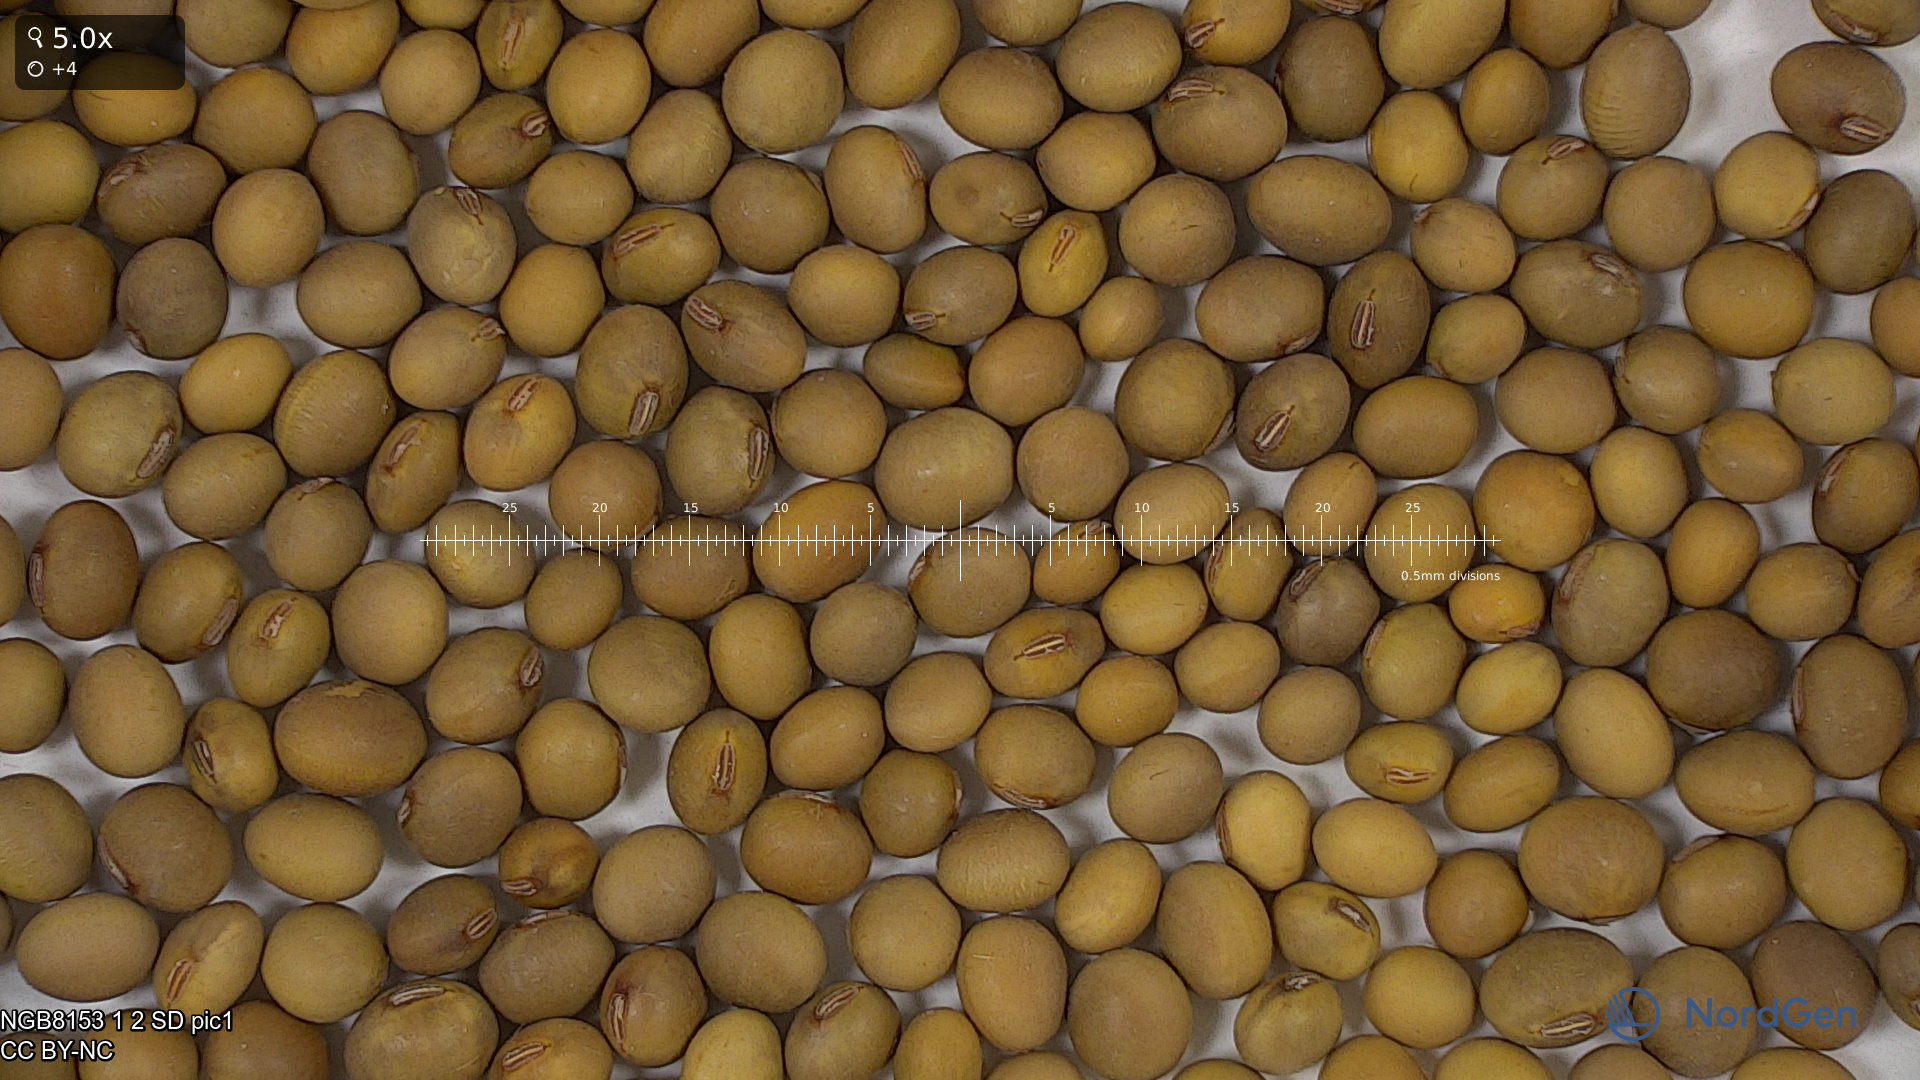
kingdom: Plantae
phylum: Tracheophyta
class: Magnoliopsida
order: Fabales
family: Fabaceae
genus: Glycine
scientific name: Glycine max
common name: Soya-bean
